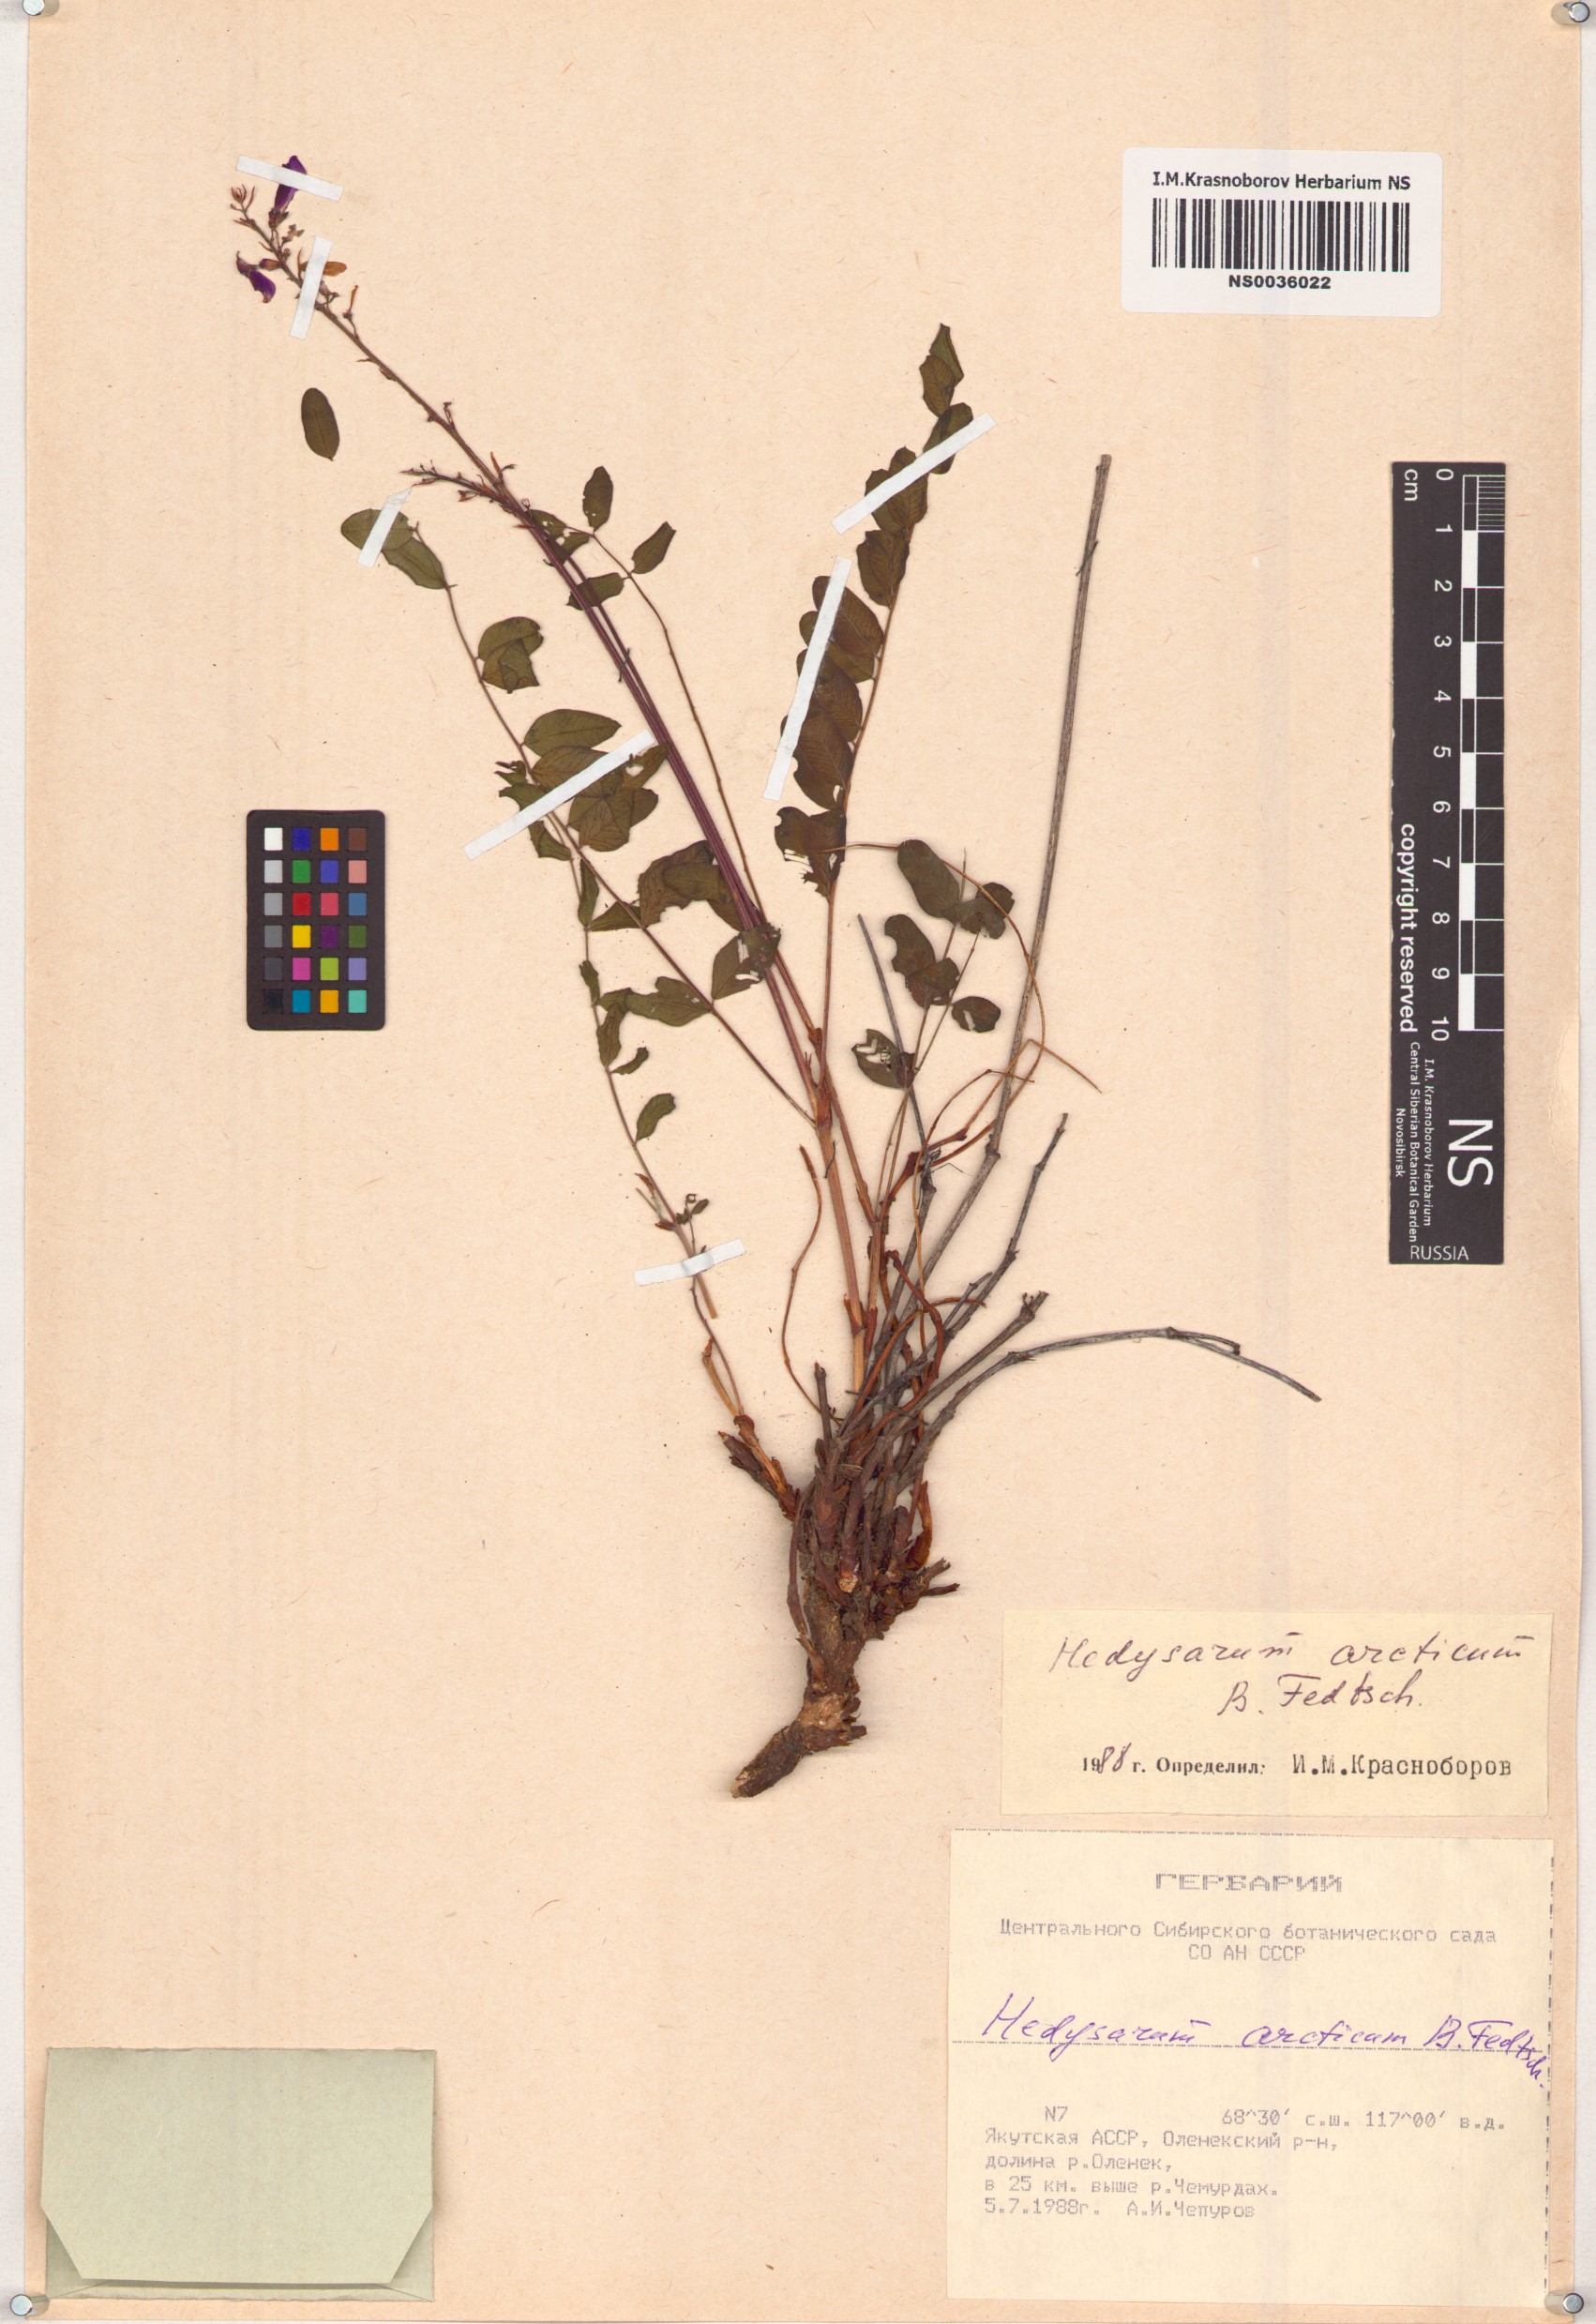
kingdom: Plantae
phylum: Tracheophyta
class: Magnoliopsida
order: Fabales
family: Fabaceae
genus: Hedysarum
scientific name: Hedysarum hedysaroides
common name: Alpine french-honeysuckle
